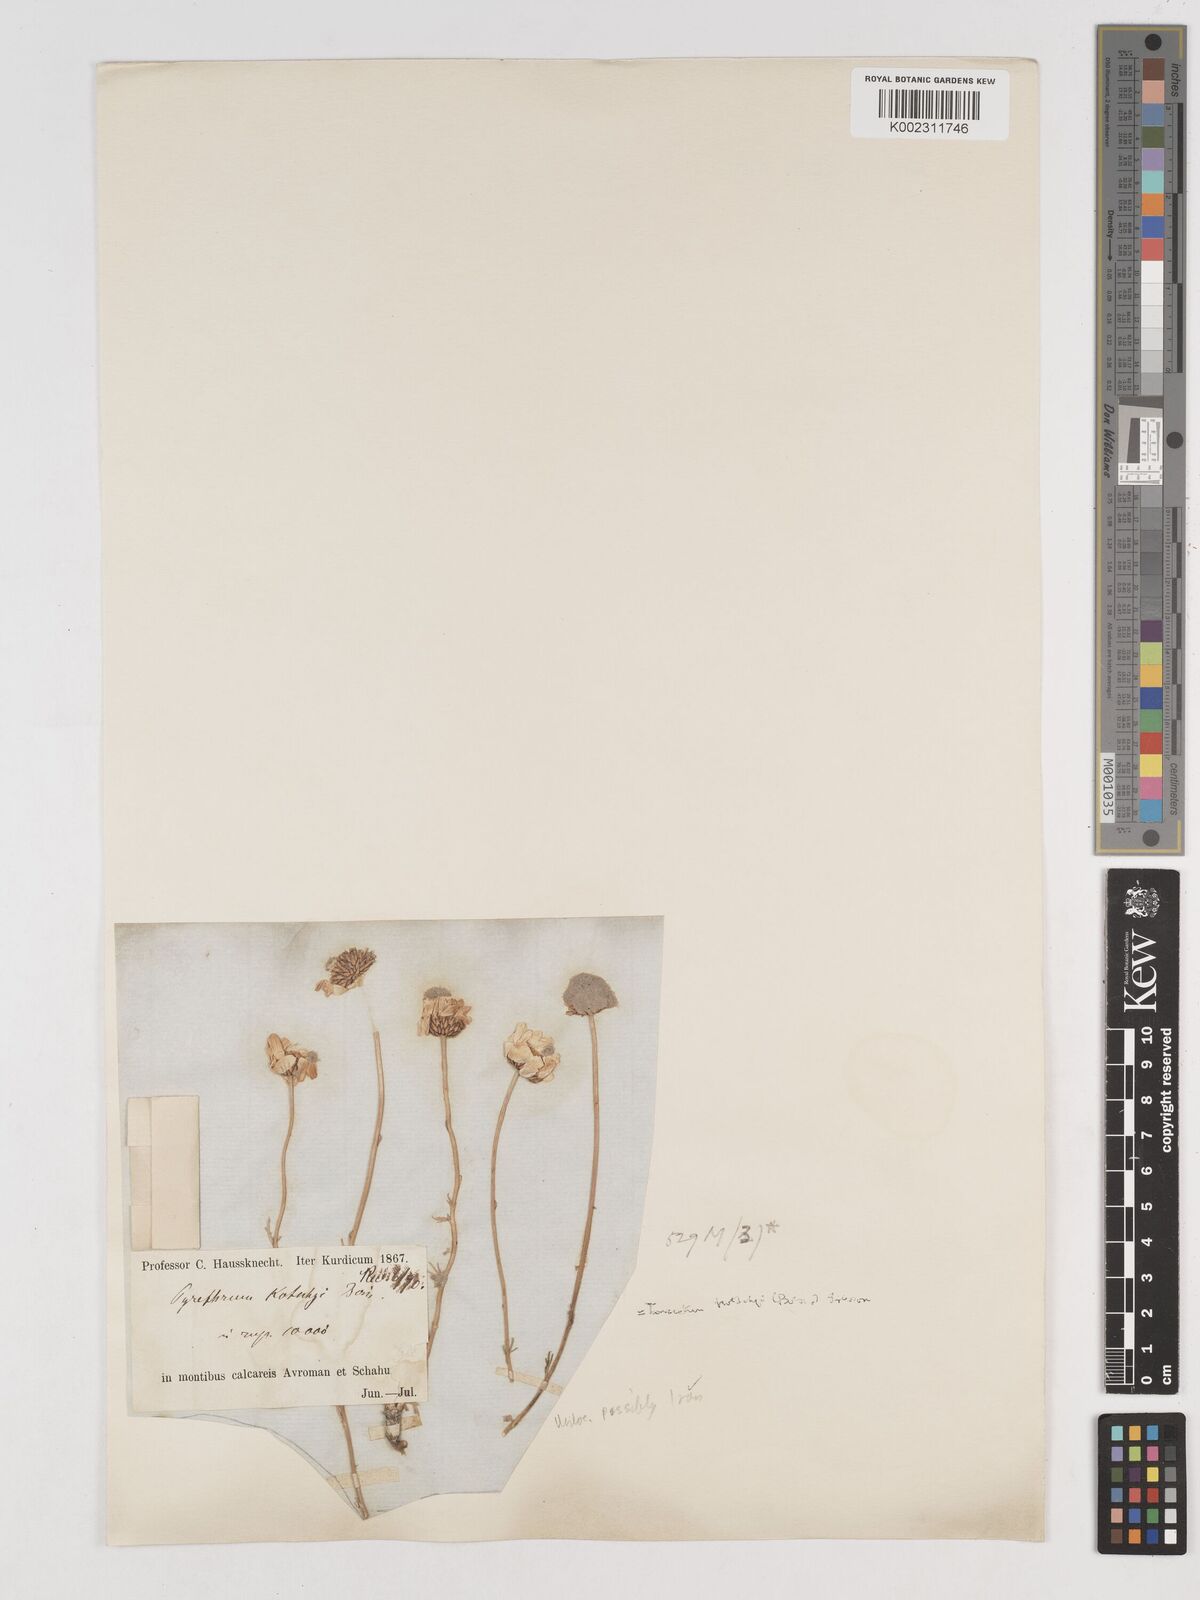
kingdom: Plantae
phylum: Tracheophyta
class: Magnoliopsida
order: Asterales
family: Asteraceae
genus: Tanacetum
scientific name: Tanacetum polycephalum
